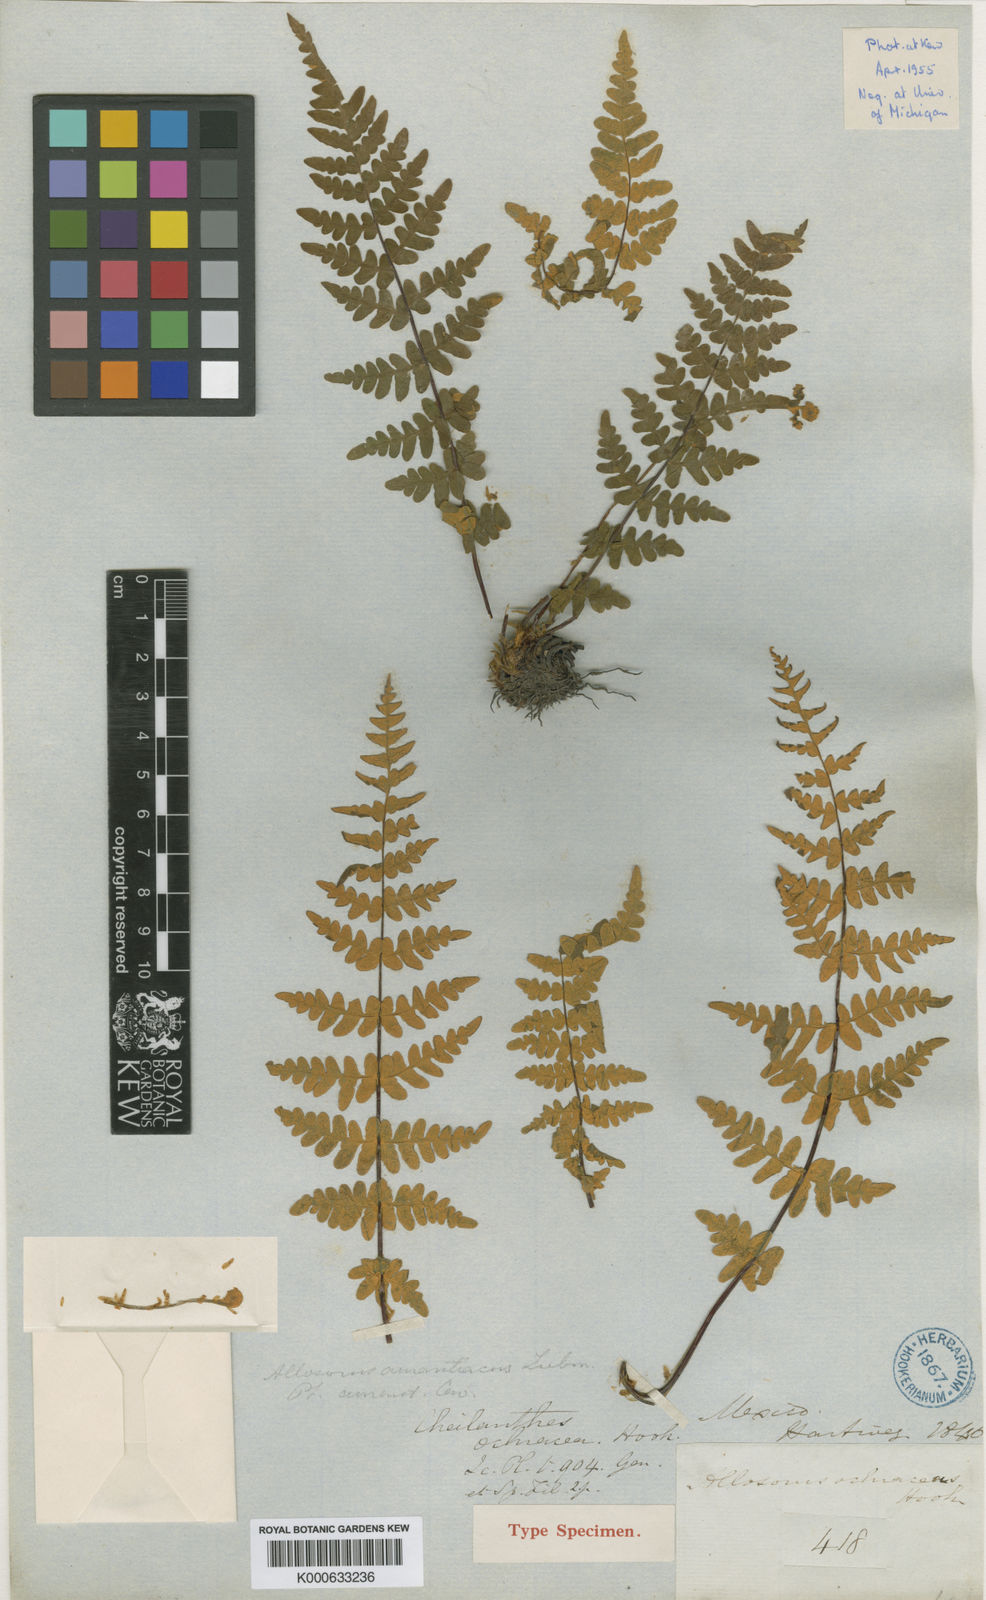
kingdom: Plantae
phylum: Tracheophyta
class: Polypodiopsida
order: Polypodiales
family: Pteridaceae
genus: Notholaena
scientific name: Notholaena ochracea
